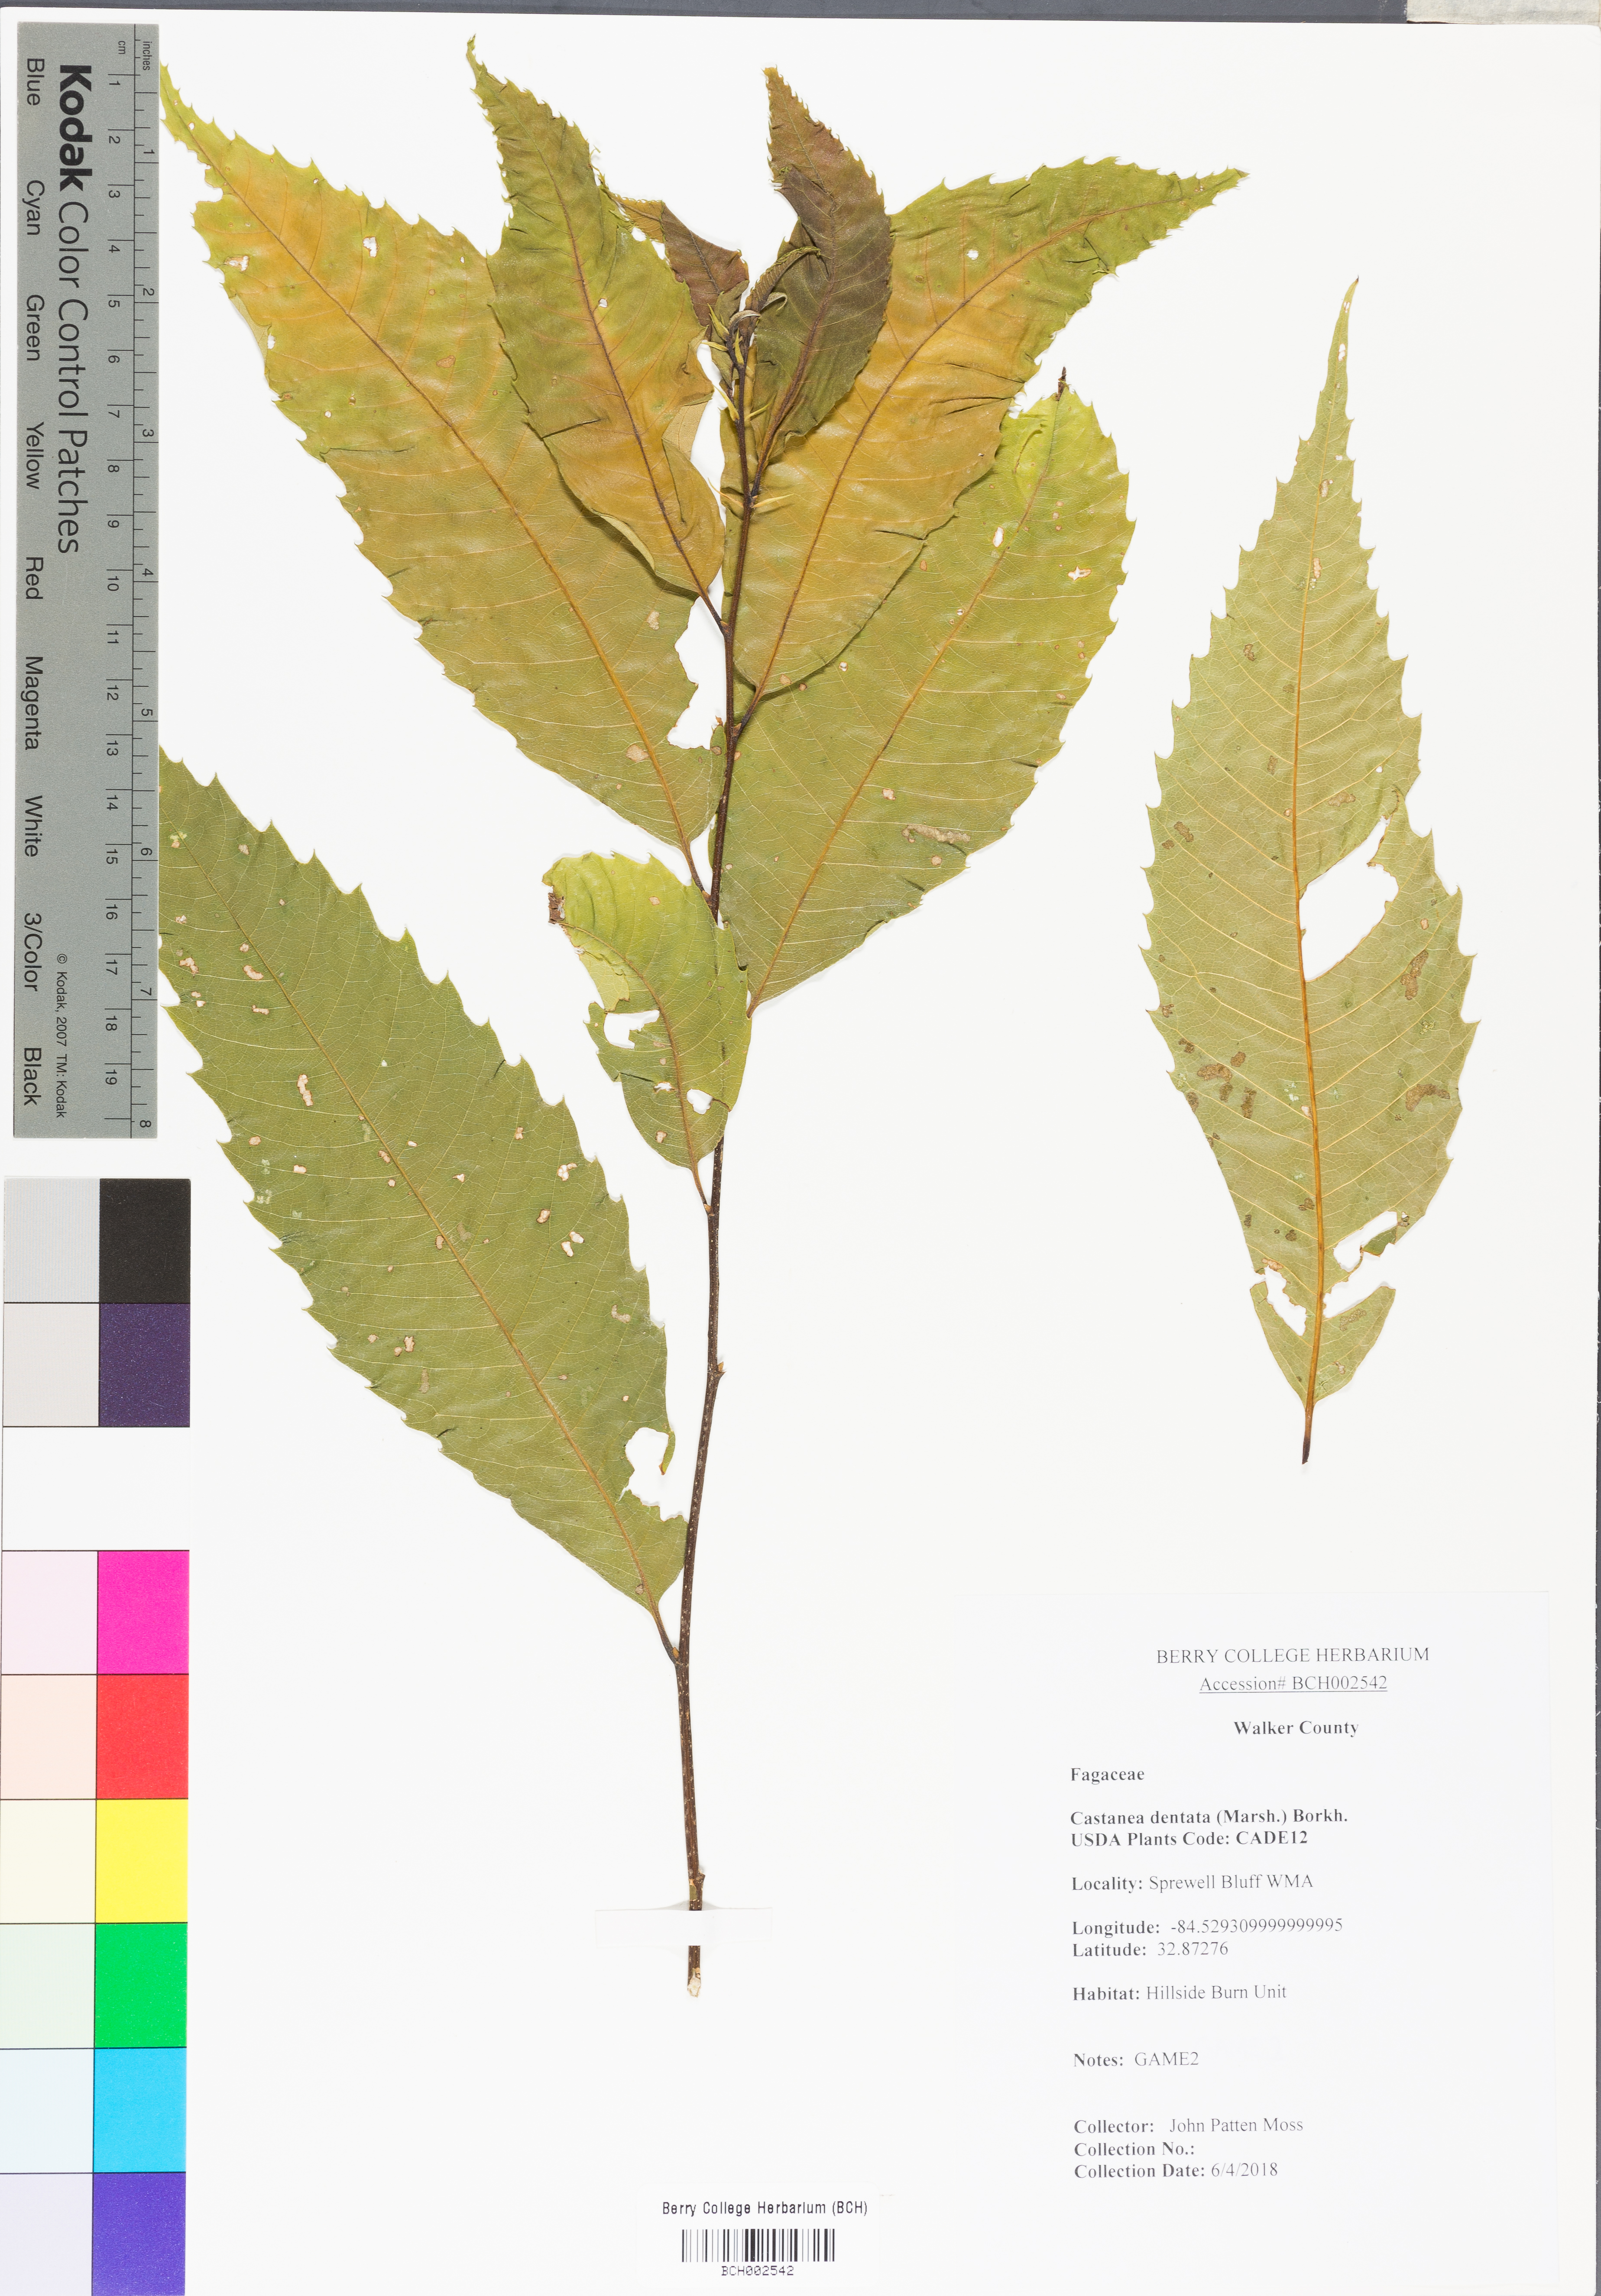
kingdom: Plantae
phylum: Tracheophyta
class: Magnoliopsida
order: Fagales
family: Fagaceae
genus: Castanea
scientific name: Castanea dentata
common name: American chestnut
